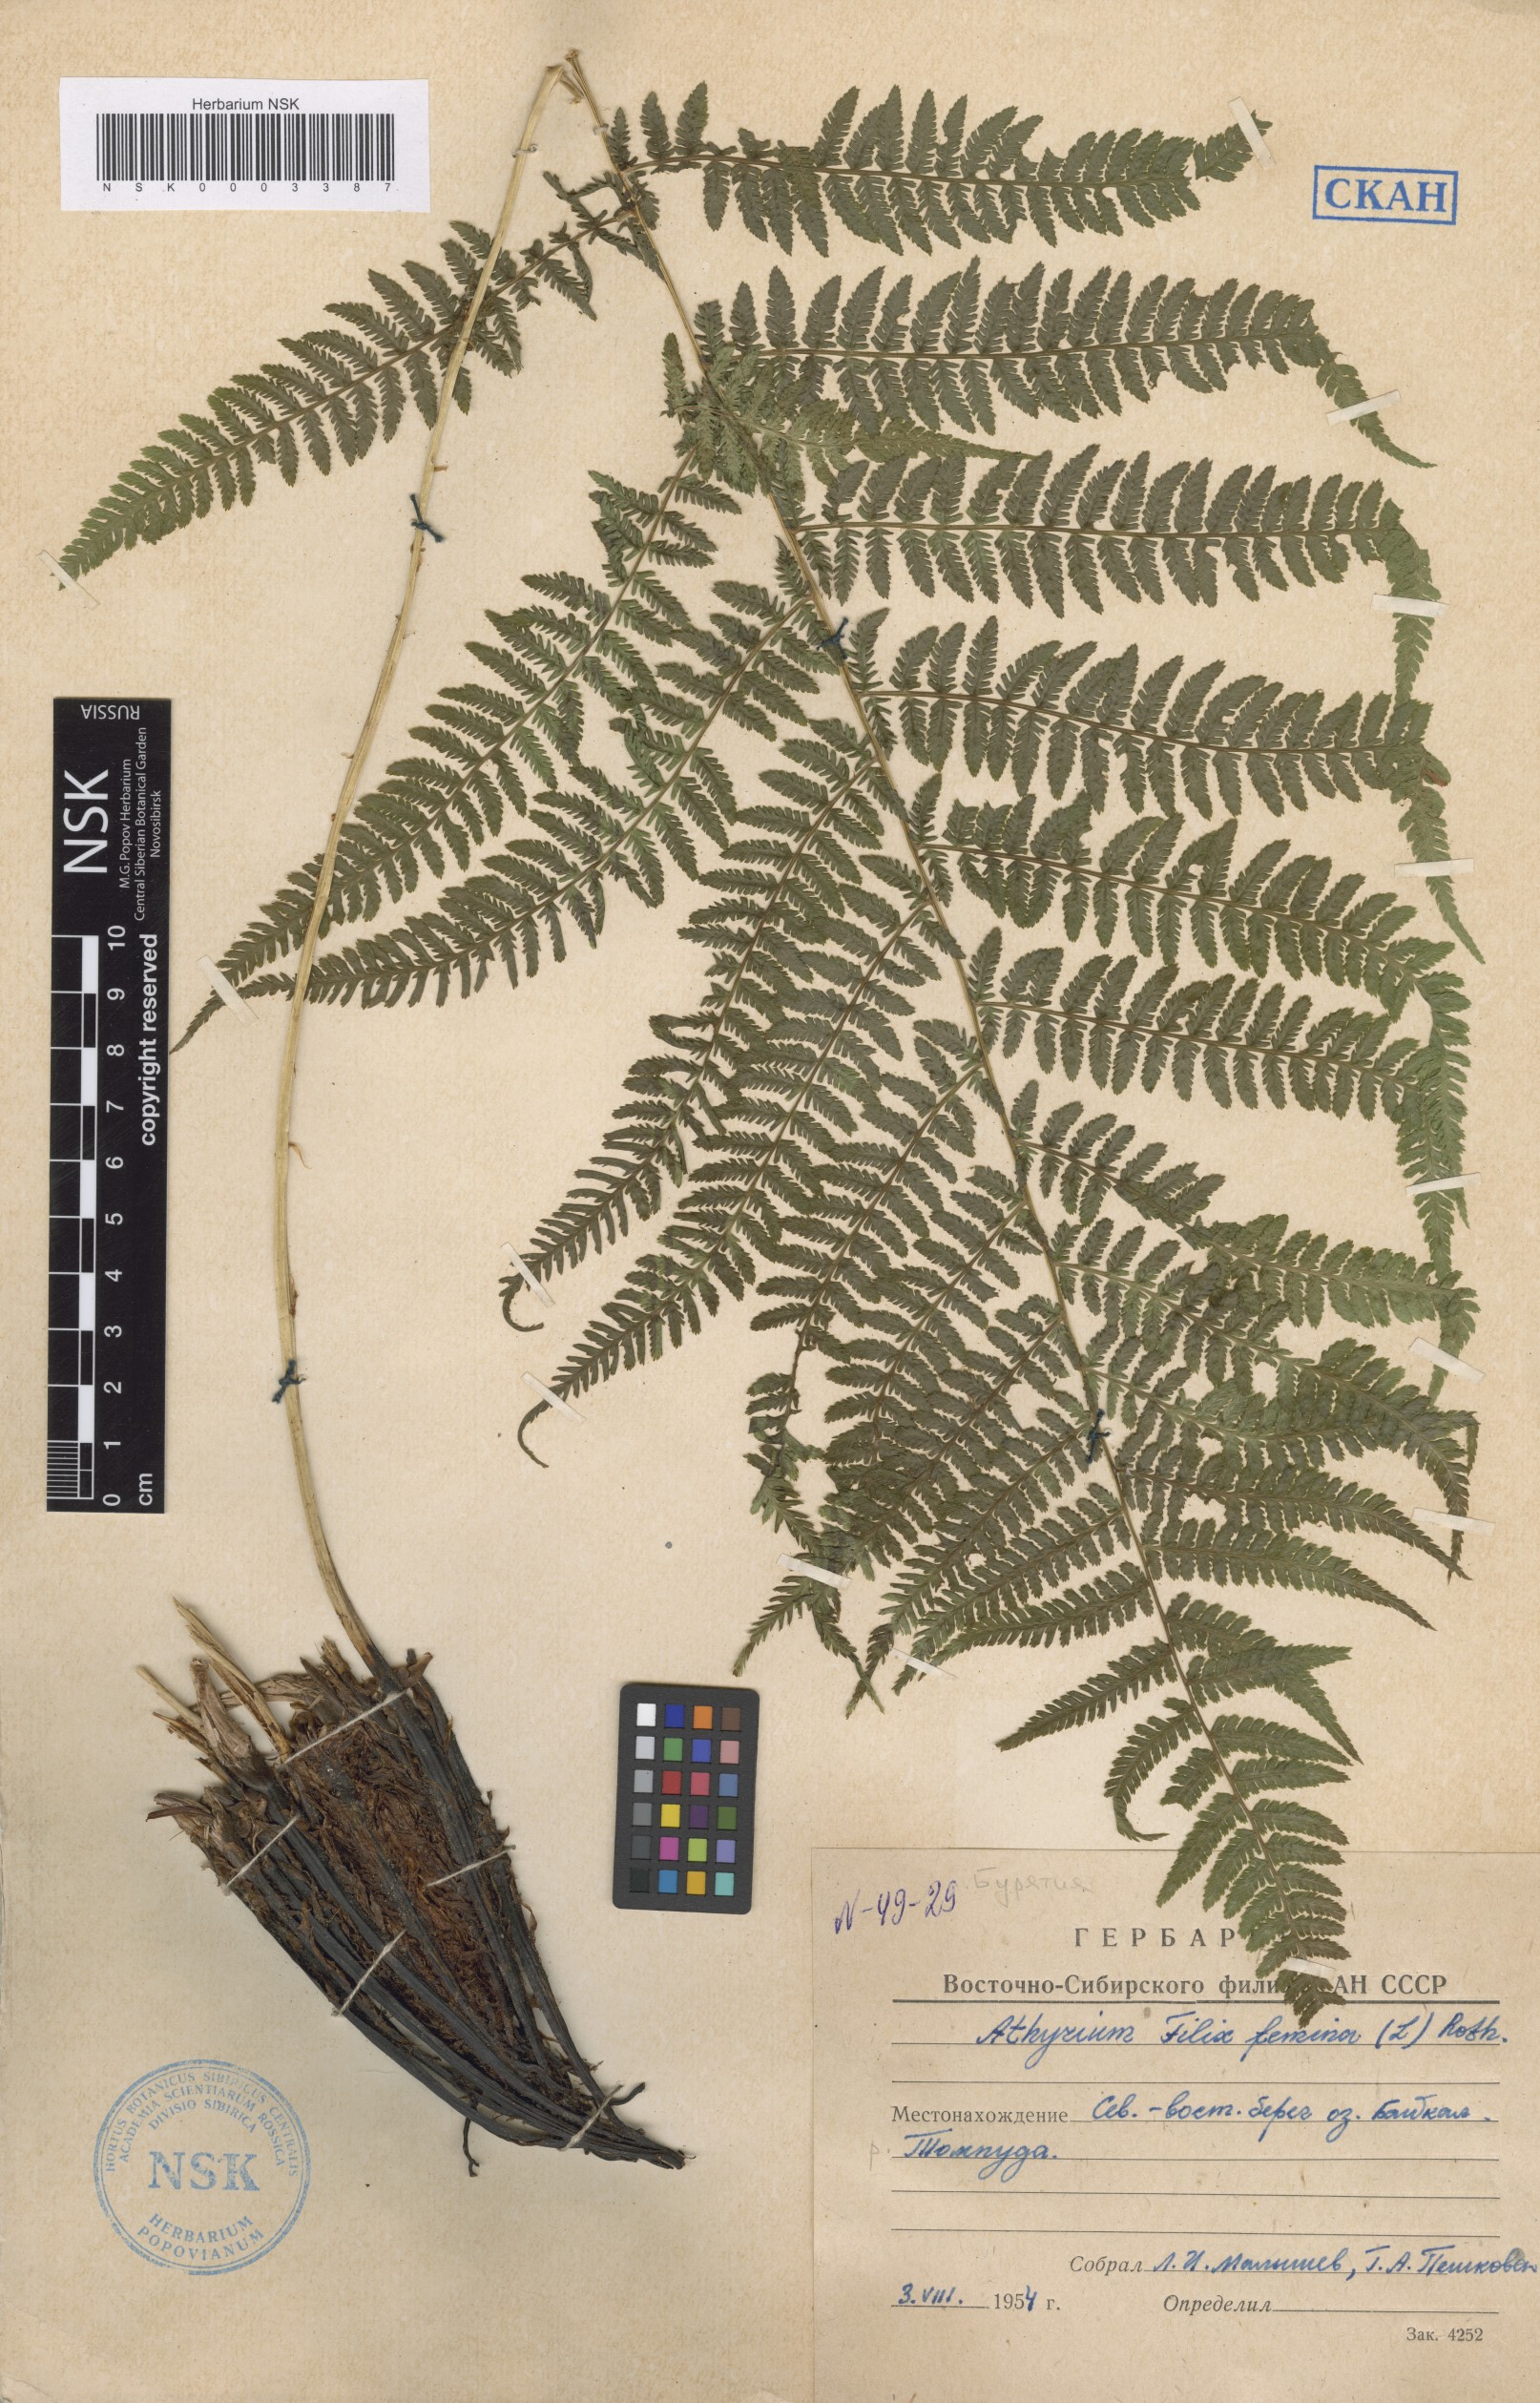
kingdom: Plantae
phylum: Tracheophyta
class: Polypodiopsida
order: Polypodiales
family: Athyriaceae
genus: Athyrium
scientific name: Athyrium filix-femina
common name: Lady fern
